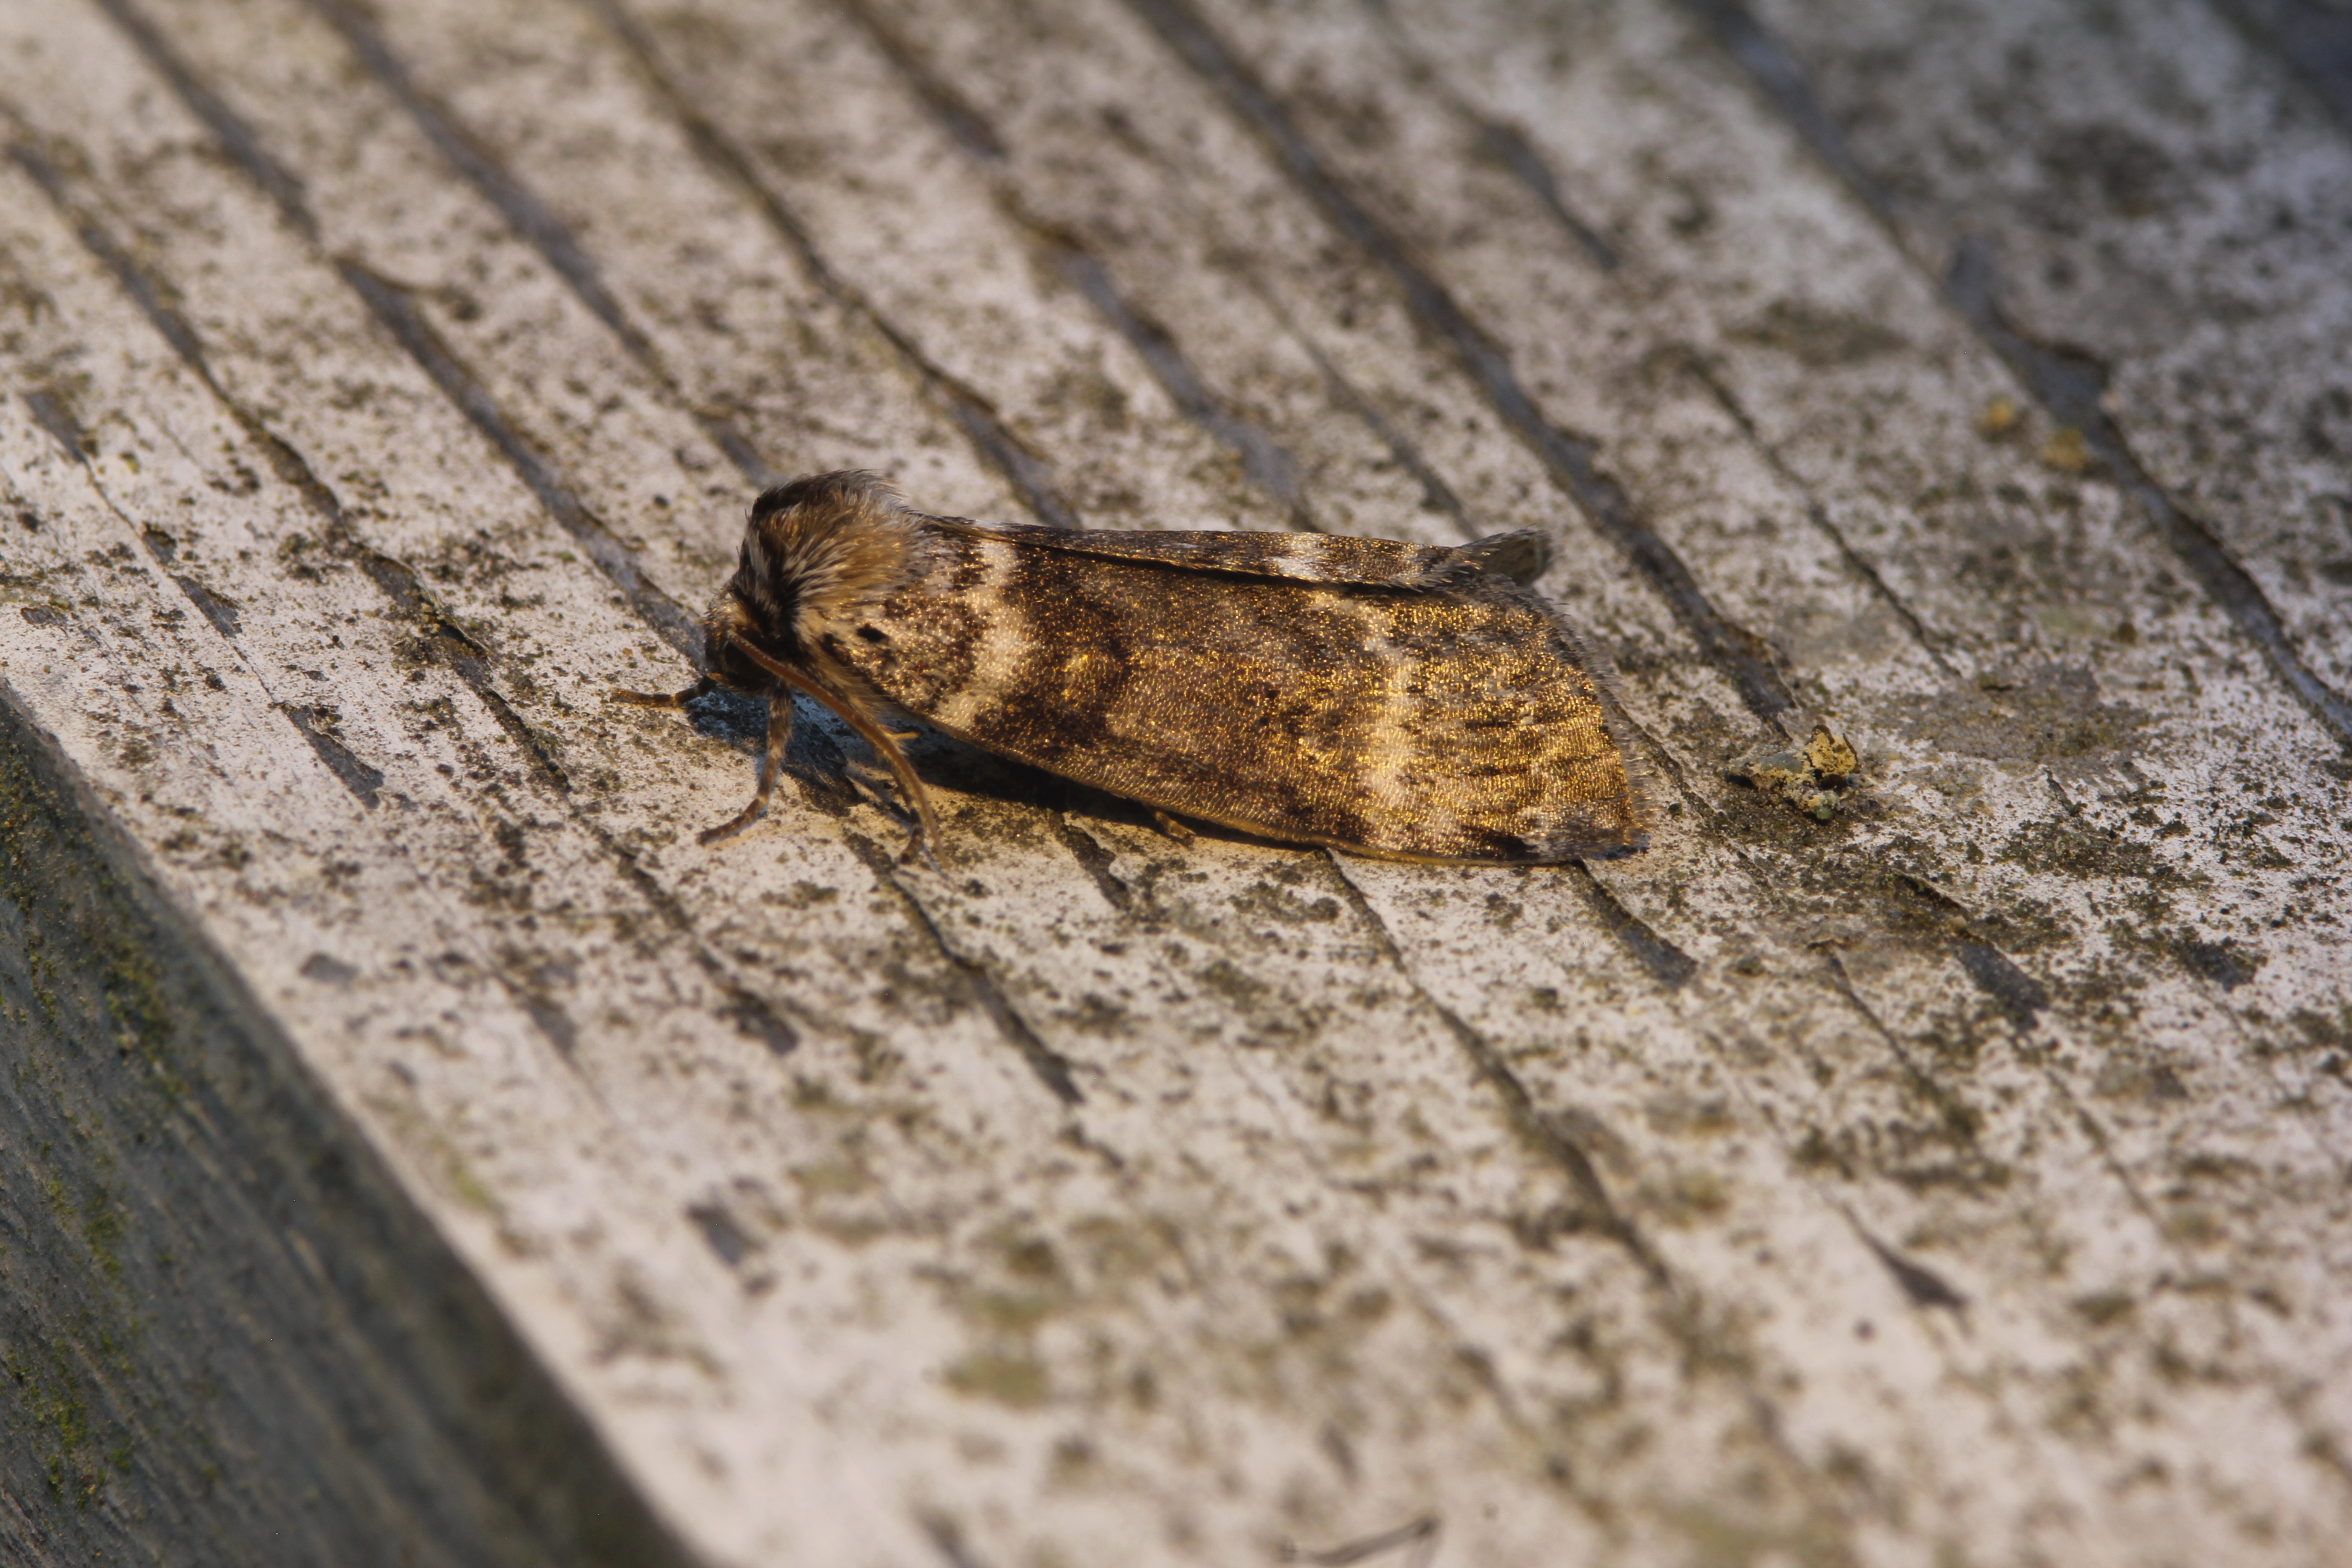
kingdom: Animalia
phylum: Arthropoda
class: Insecta
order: Lepidoptera
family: Drepanidae
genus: Tetheella
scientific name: Tetheella fluctuosa
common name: Satin lutestring
